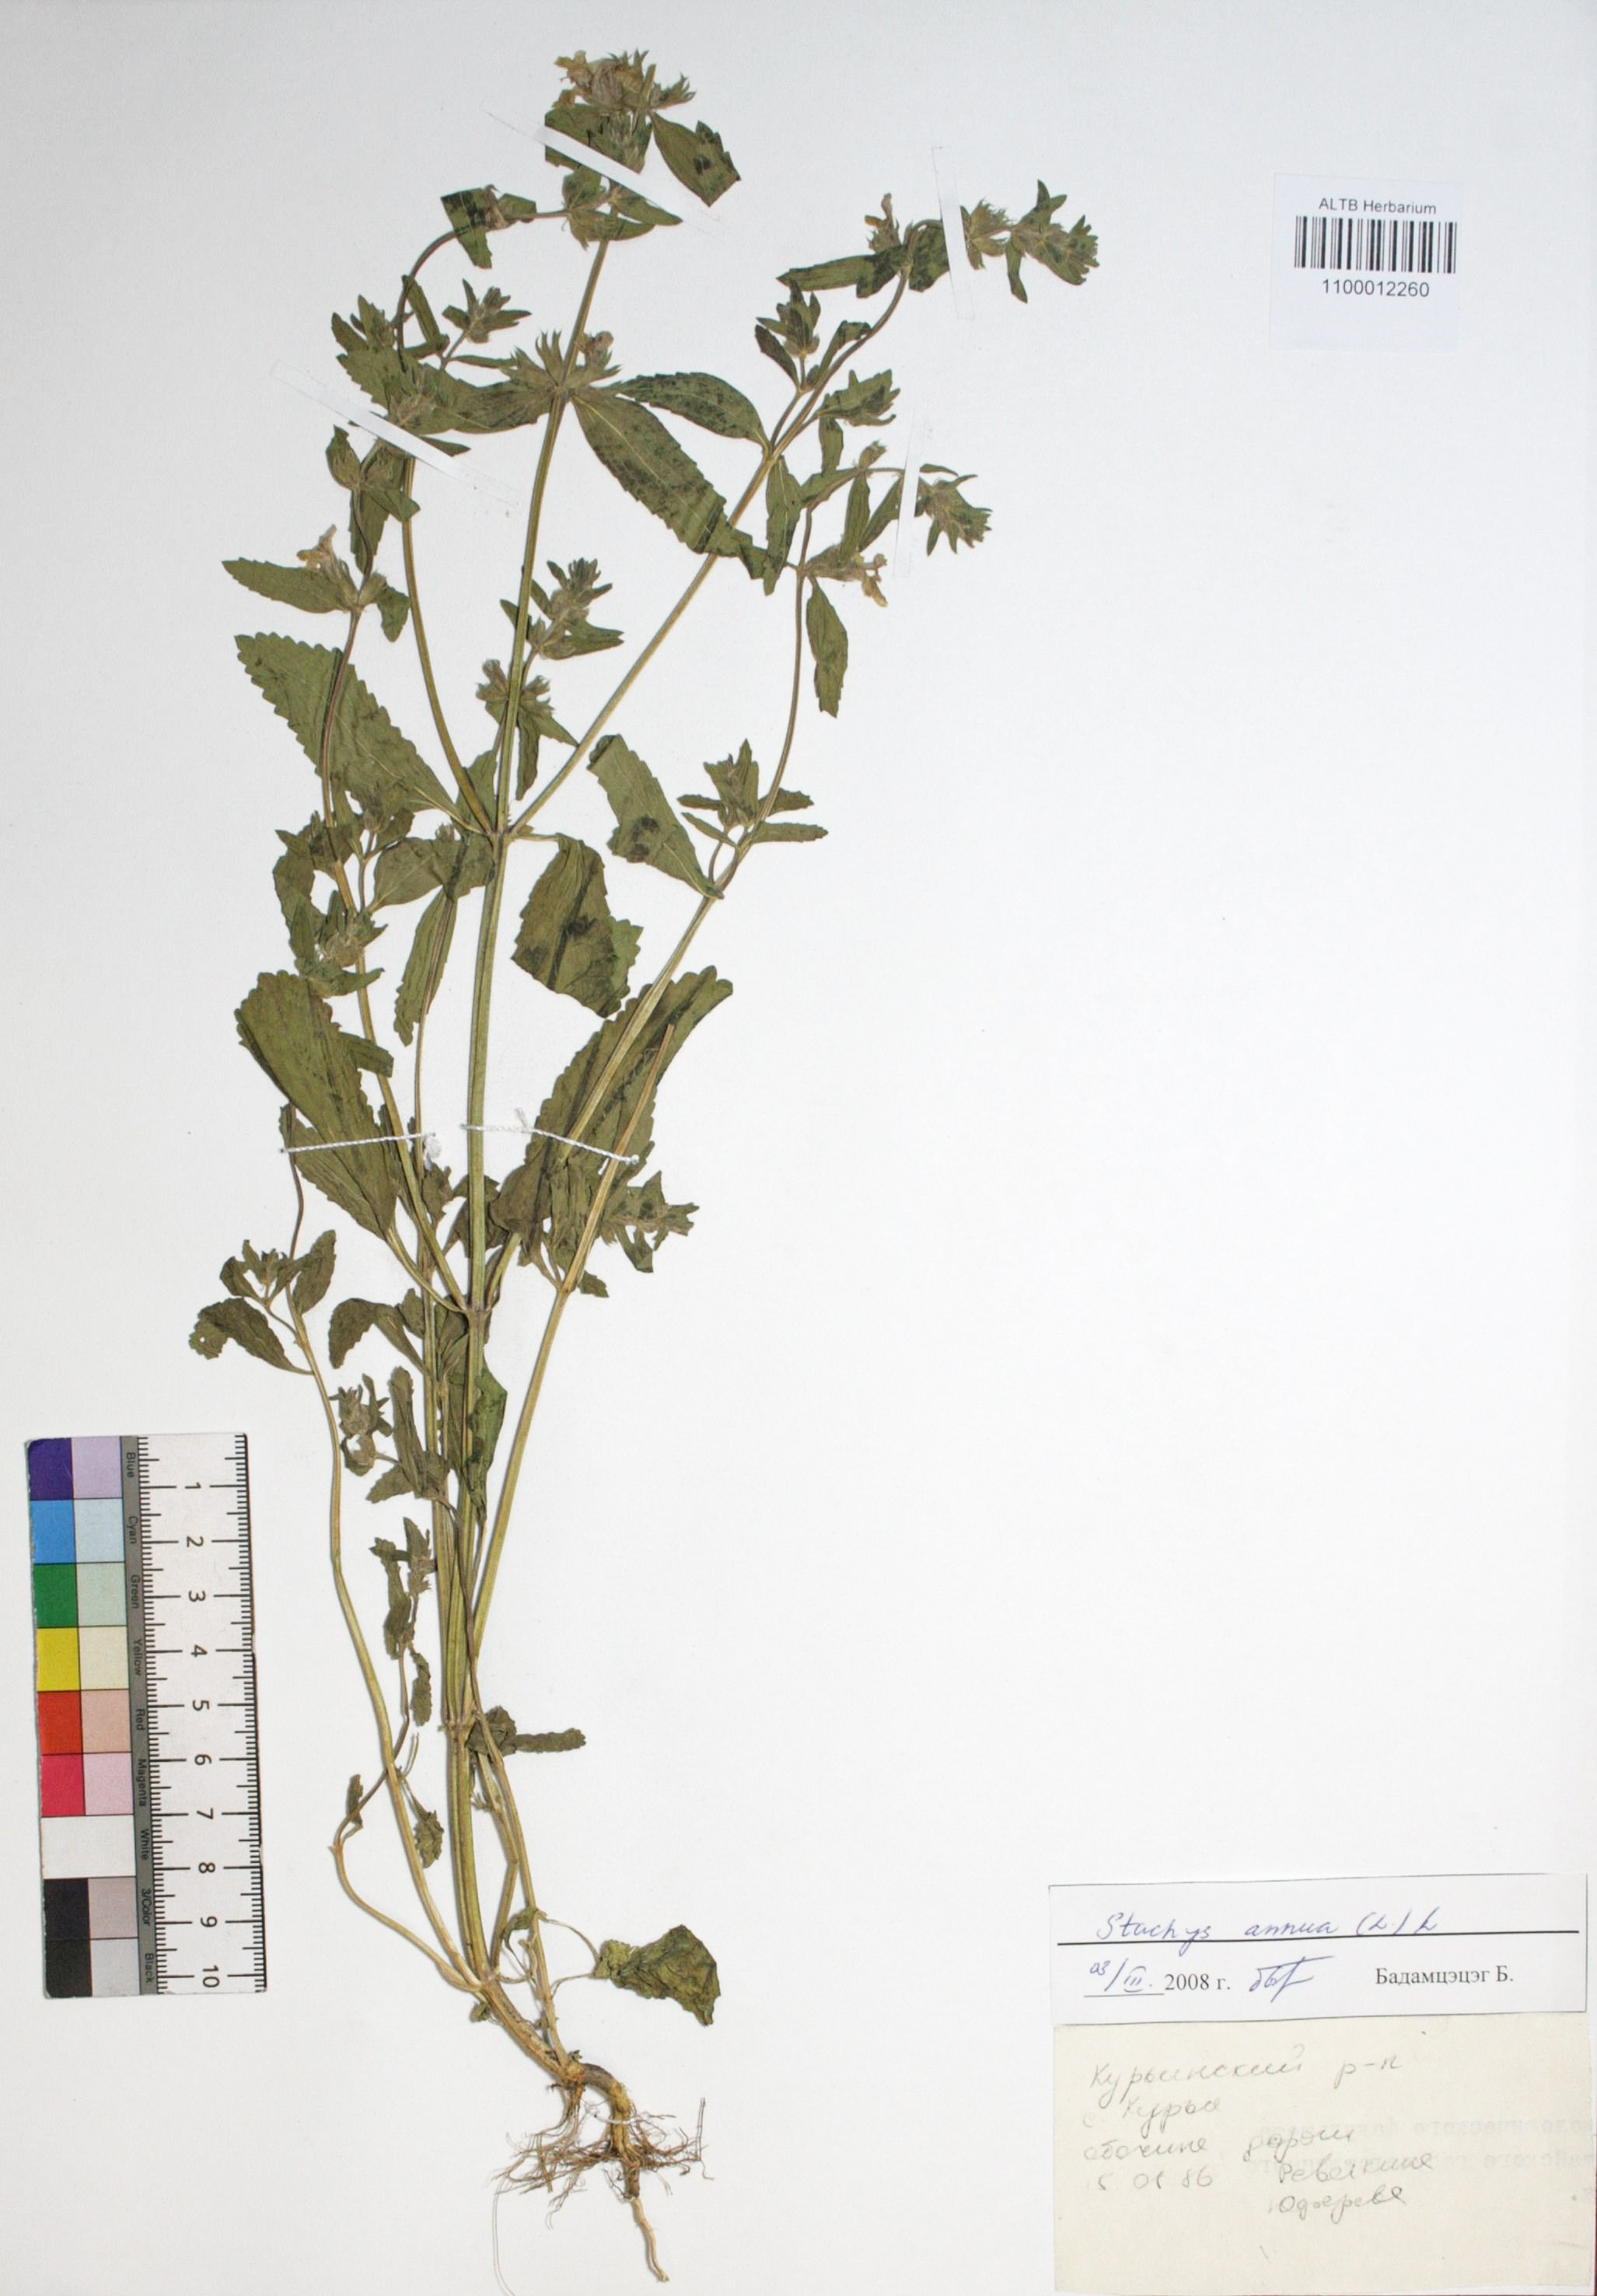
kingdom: Plantae
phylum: Tracheophyta
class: Magnoliopsida
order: Lamiales
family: Lamiaceae
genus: Stachys
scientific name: Stachys annua
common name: Annual yellow-woundwort
